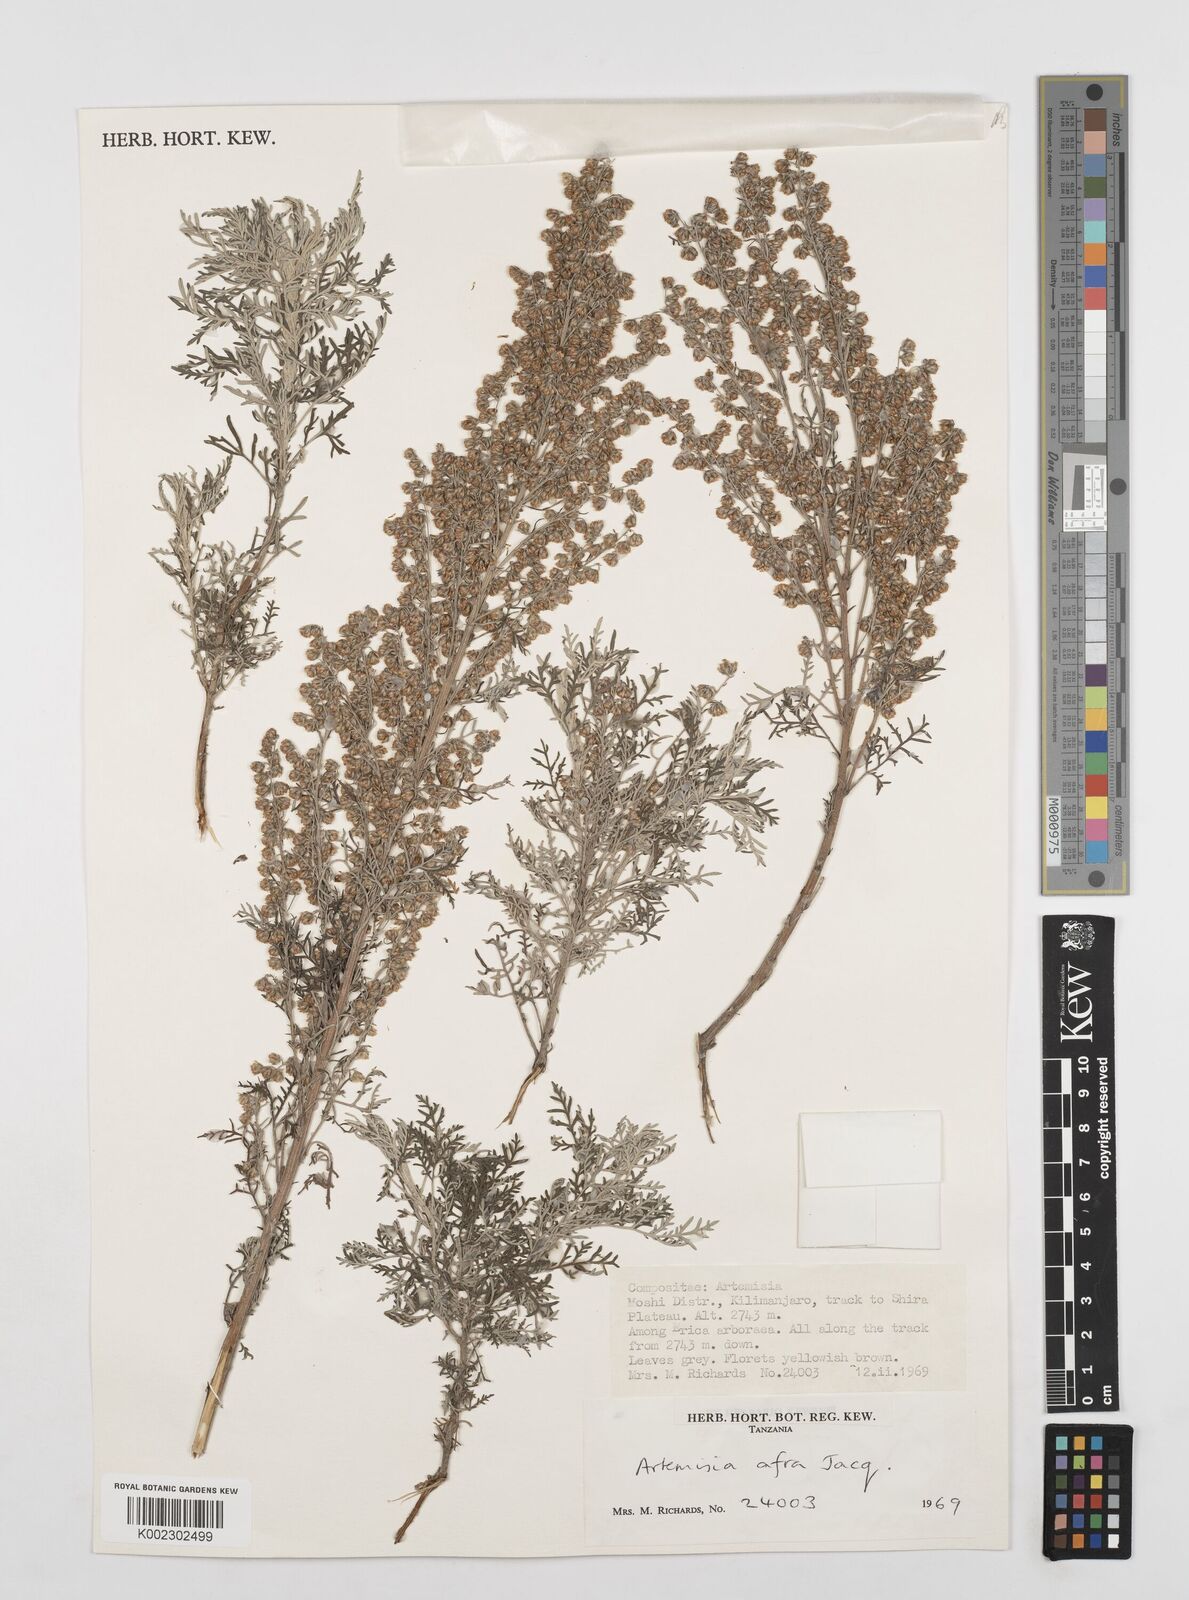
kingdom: Plantae
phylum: Tracheophyta
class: Magnoliopsida
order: Asterales
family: Asteraceae
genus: Artemisia
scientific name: Artemisia afra
